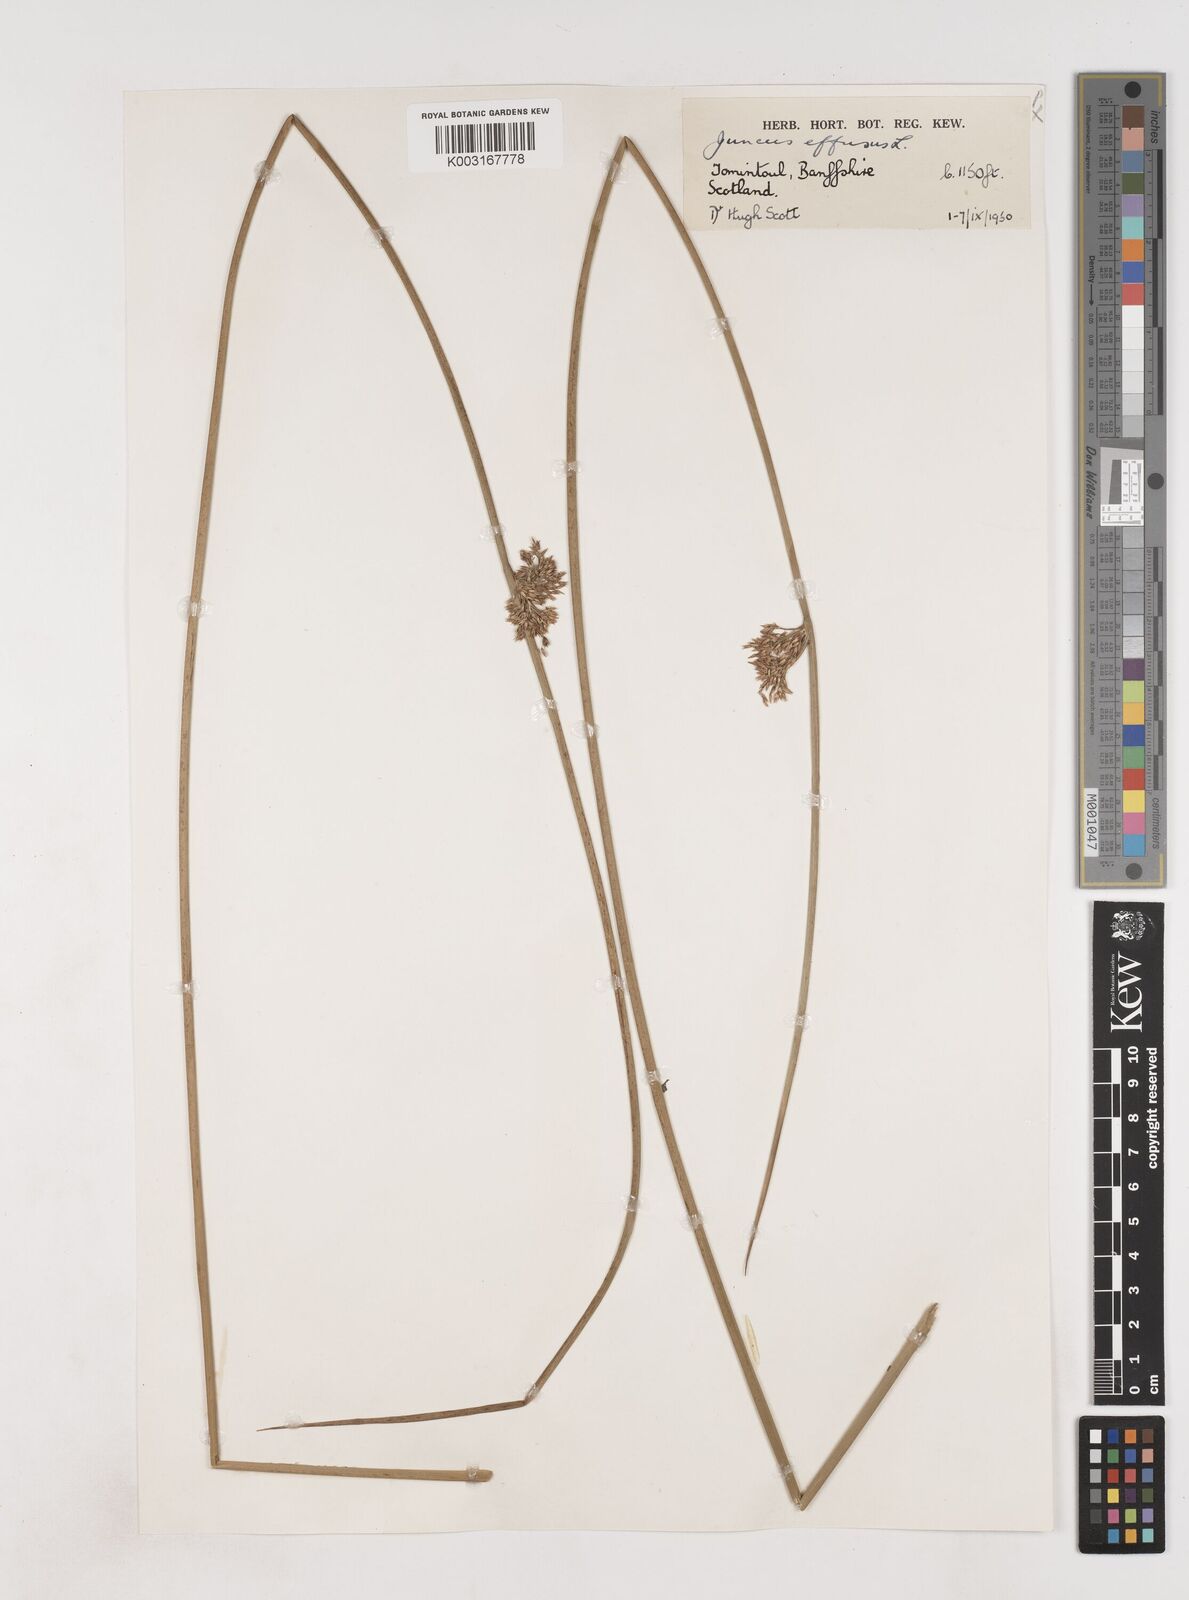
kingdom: Plantae
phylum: Tracheophyta
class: Liliopsida
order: Poales
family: Juncaceae
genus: Juncus
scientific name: Juncus effusus
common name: Soft rush
